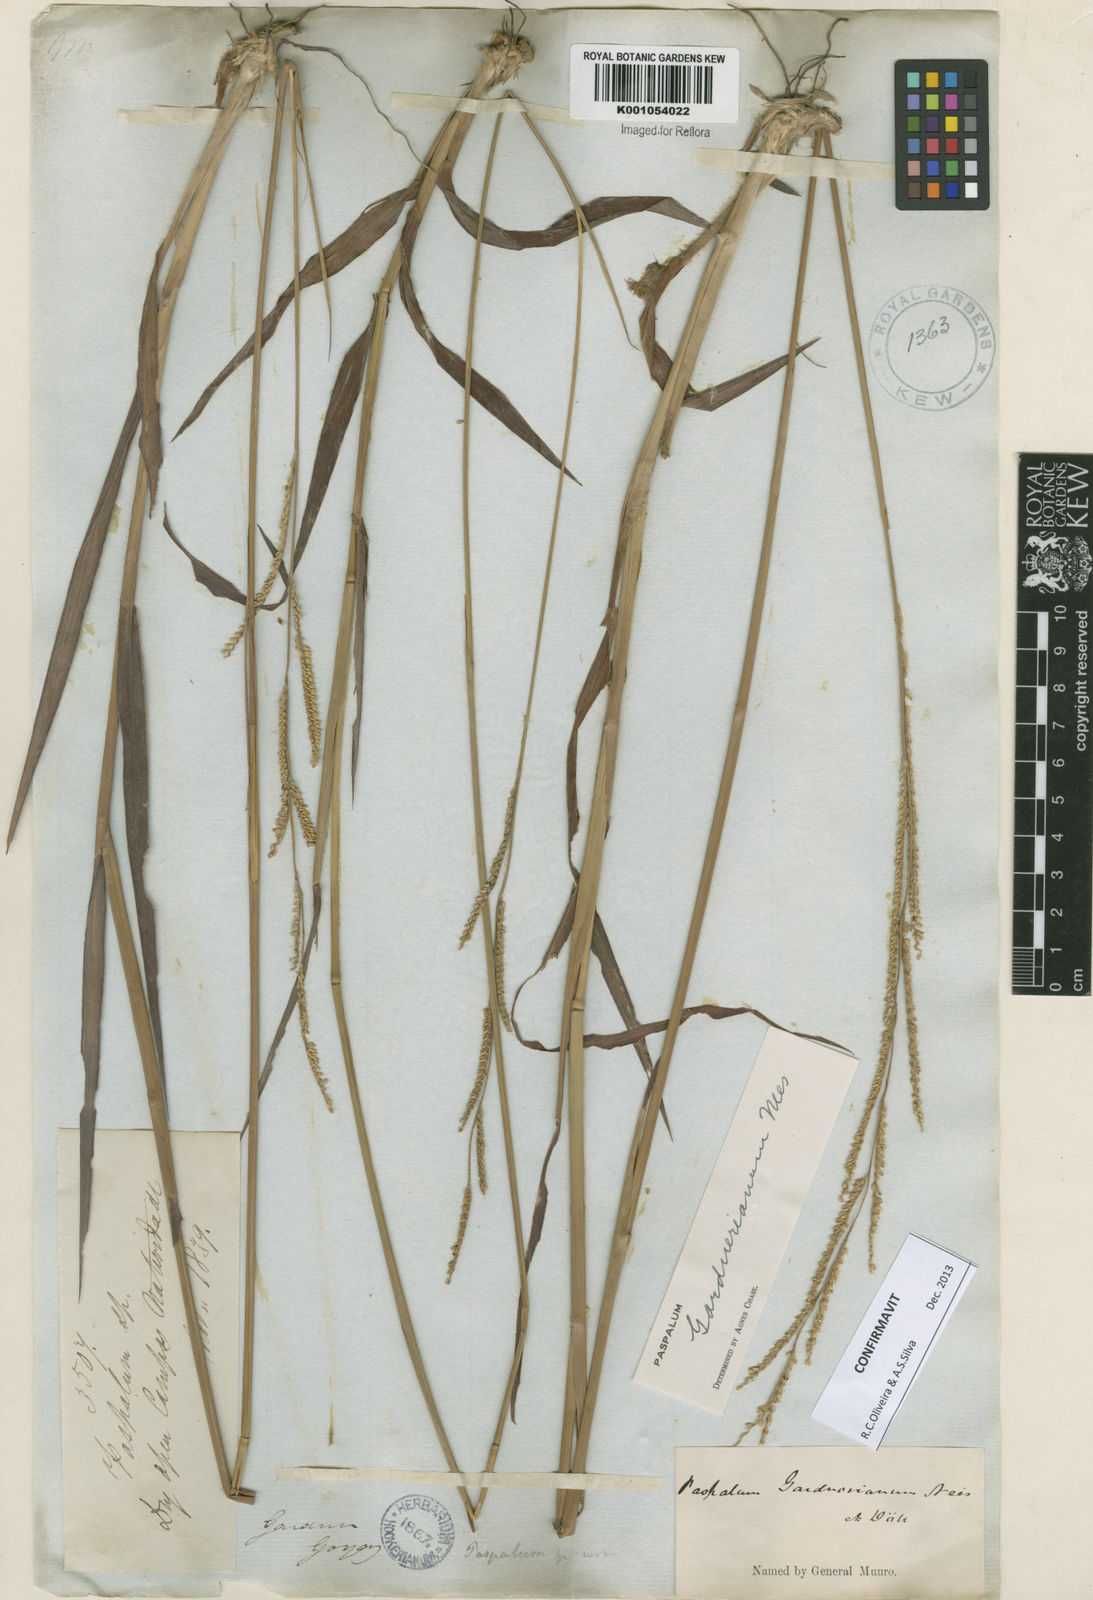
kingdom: Plantae
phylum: Tracheophyta
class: Liliopsida
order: Poales
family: Poaceae
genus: Paspalum
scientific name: Paspalum gardnerianum
